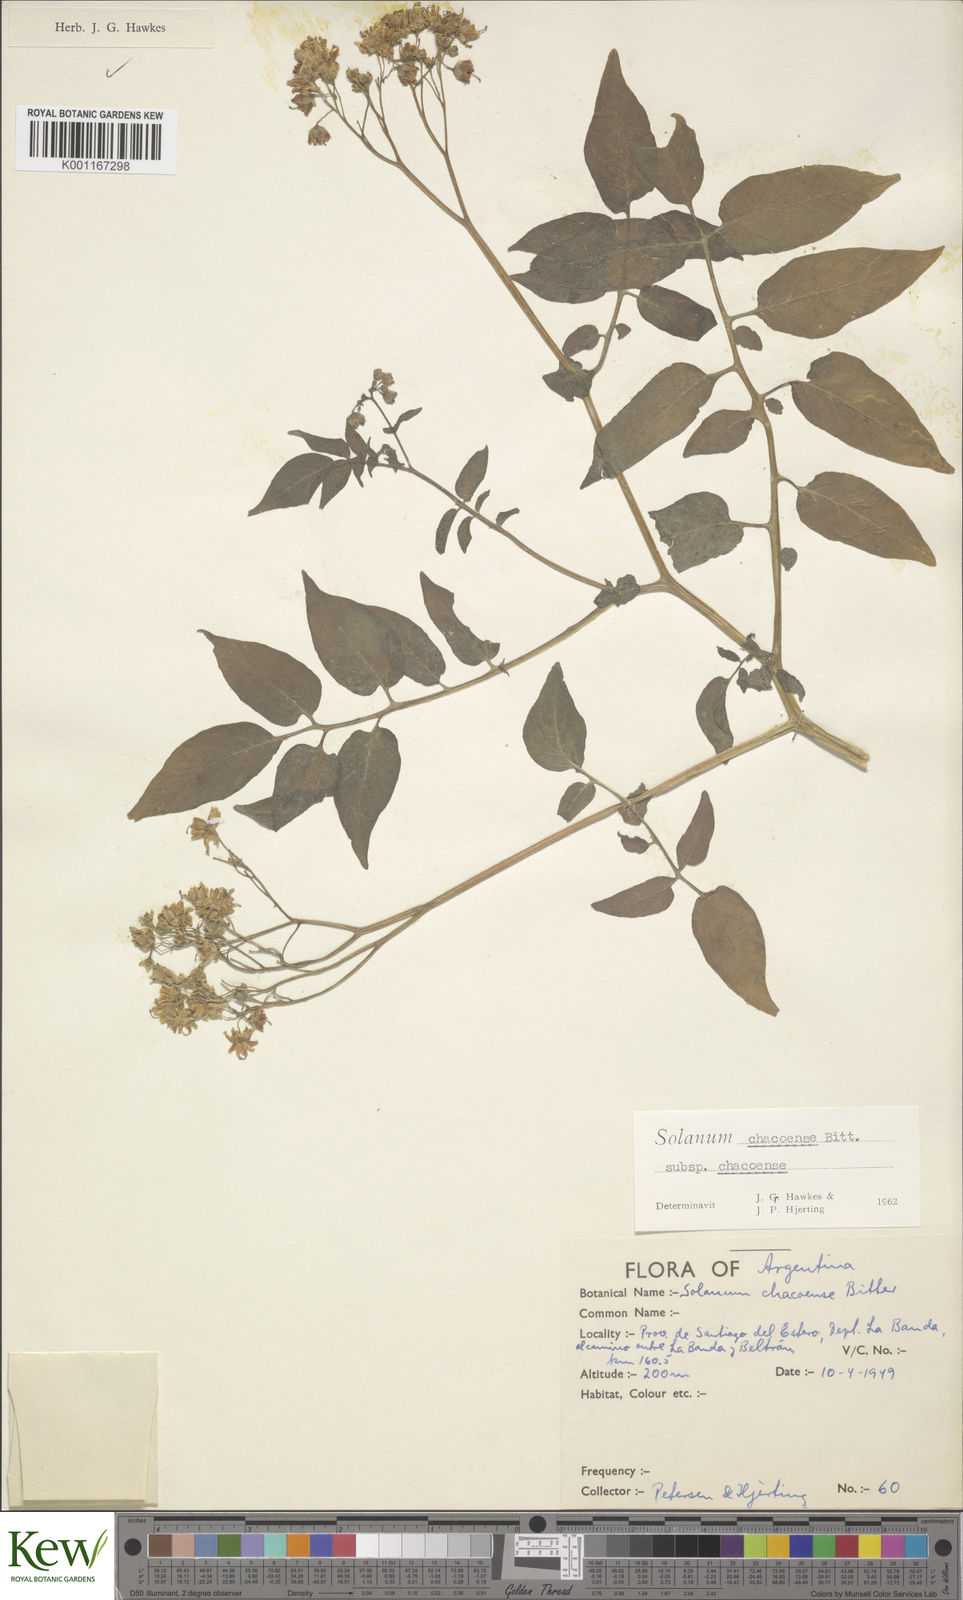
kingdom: Plantae
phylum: Tracheophyta
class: Magnoliopsida
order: Solanales
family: Solanaceae
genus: Solanum
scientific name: Solanum chacoense
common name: Chaco potato
